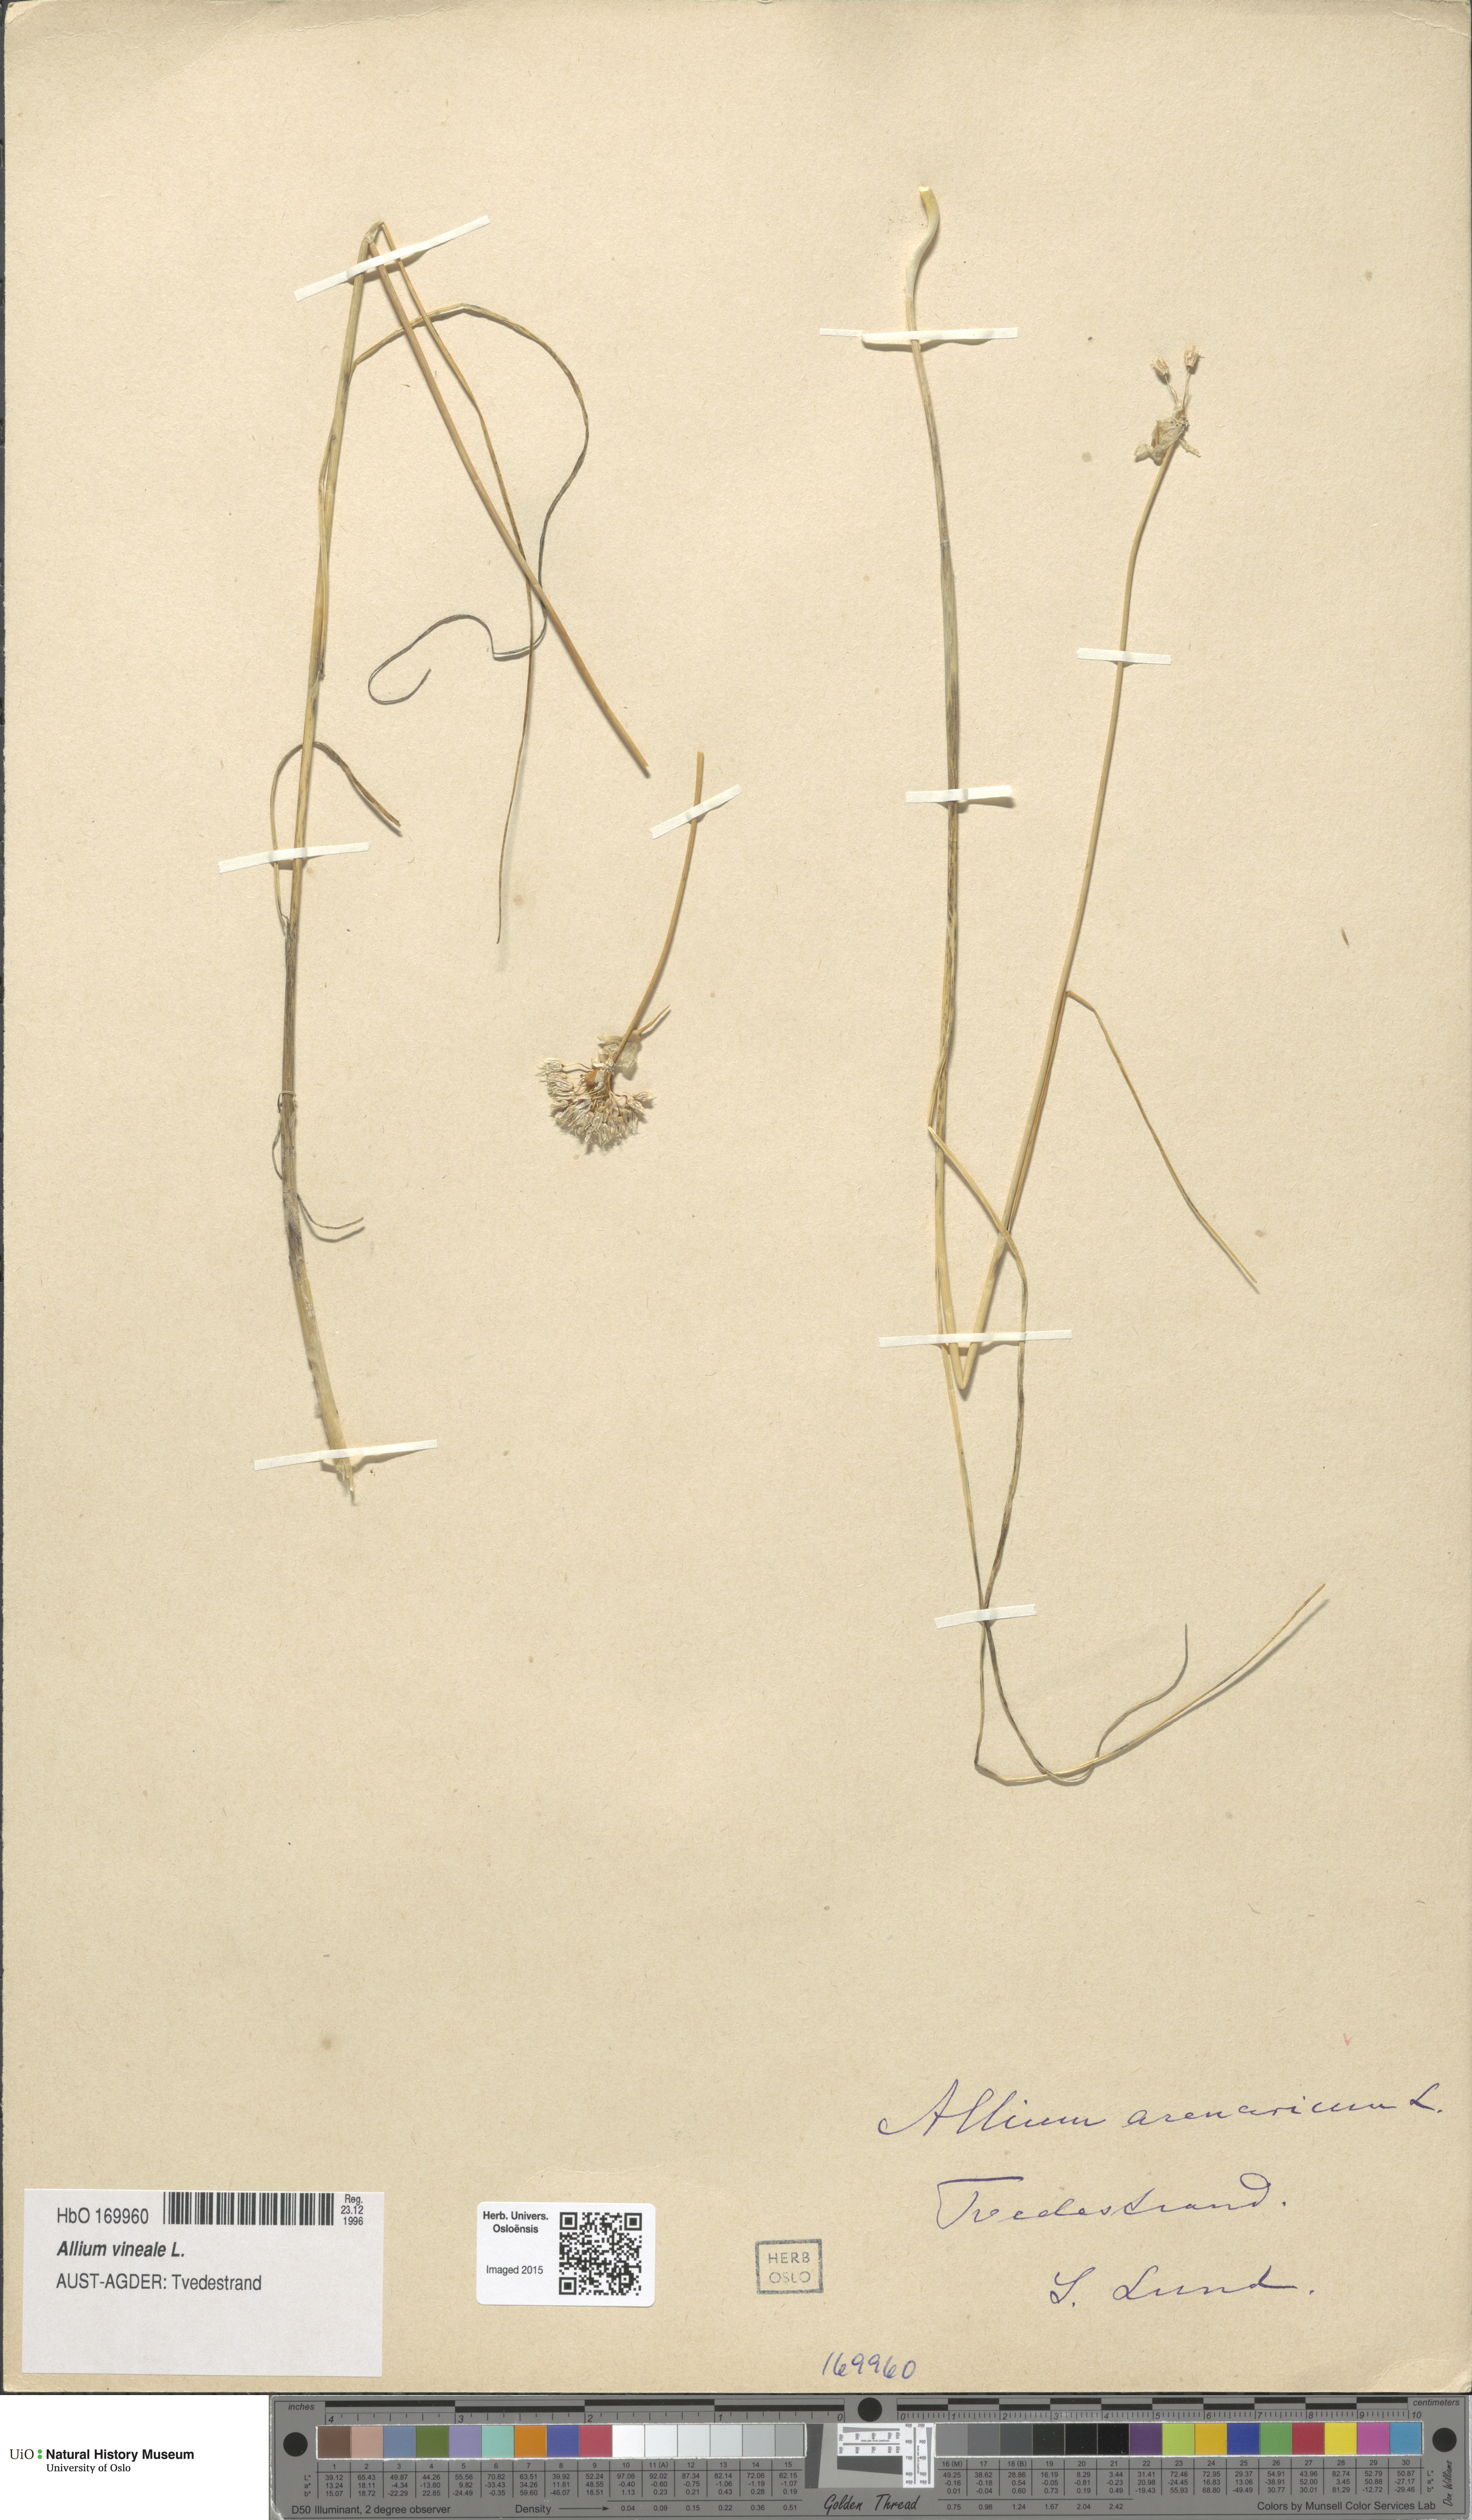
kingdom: Plantae
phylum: Tracheophyta
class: Liliopsida
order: Asparagales
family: Amaryllidaceae
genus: Allium
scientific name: Allium vineale
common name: Crow garlic
